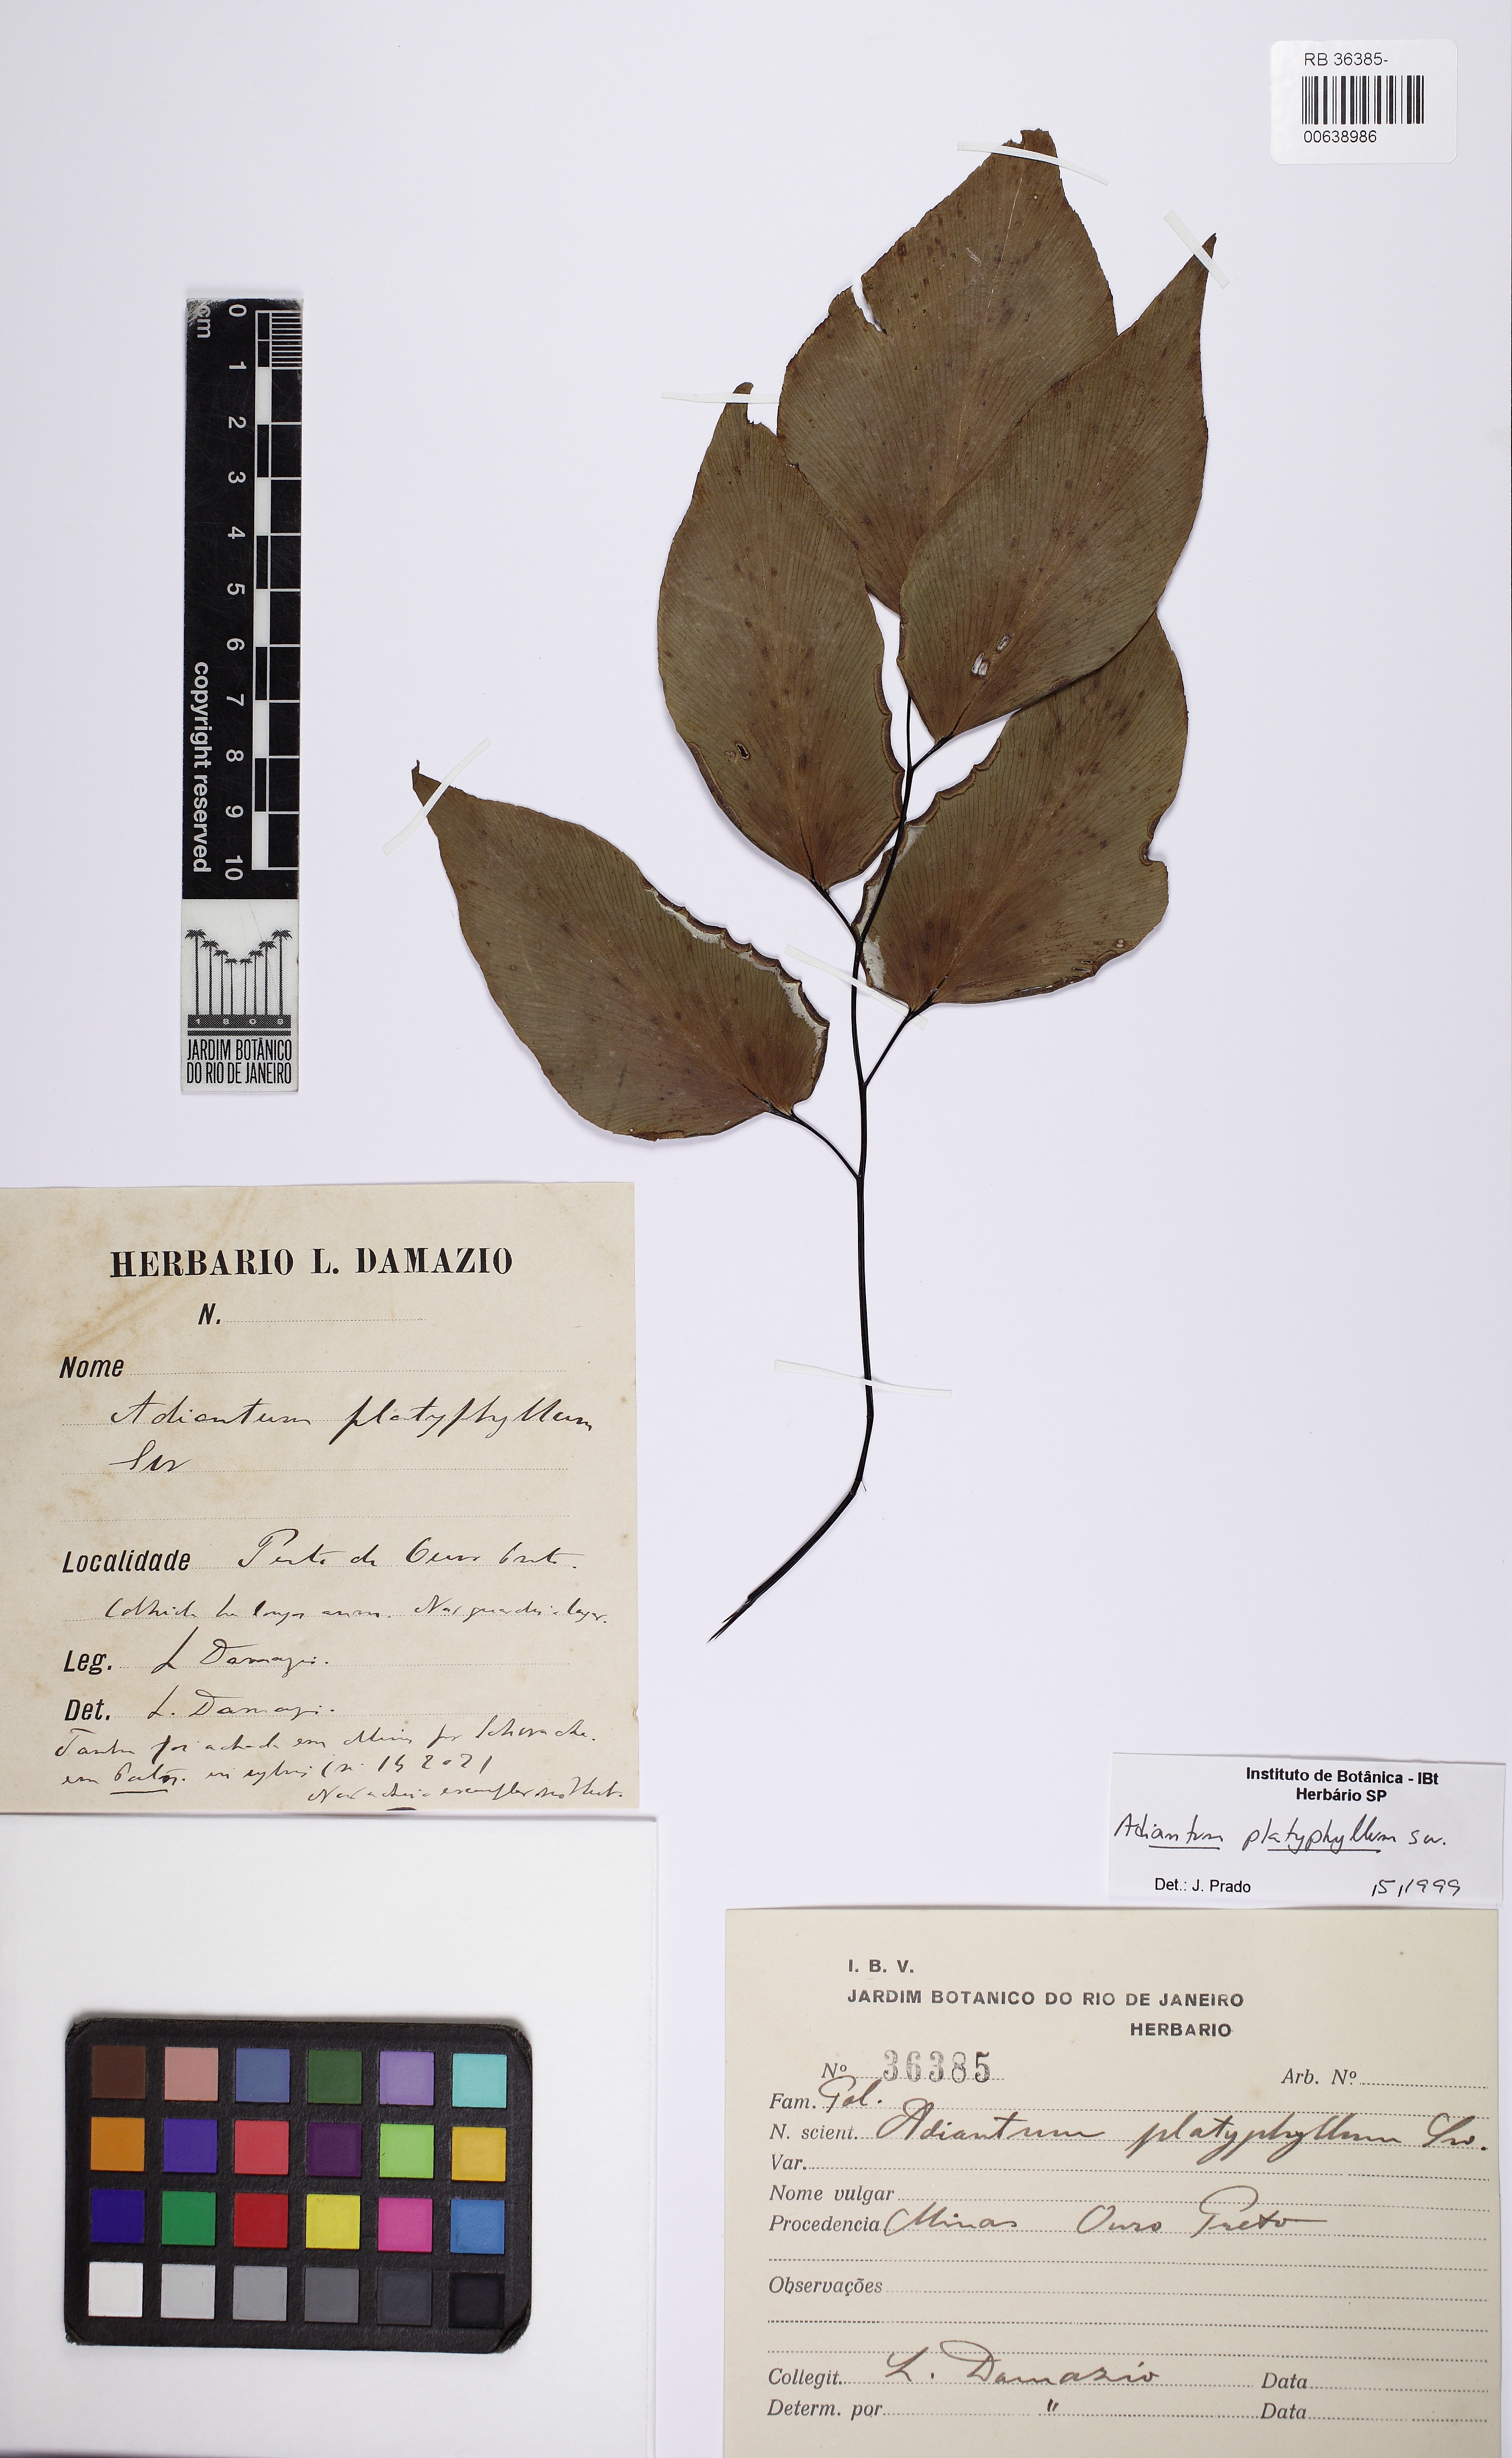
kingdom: Plantae
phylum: Tracheophyta
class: Polypodiopsida
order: Polypodiales
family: Pteridaceae
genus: Adiantum
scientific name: Adiantum platyphyllum
